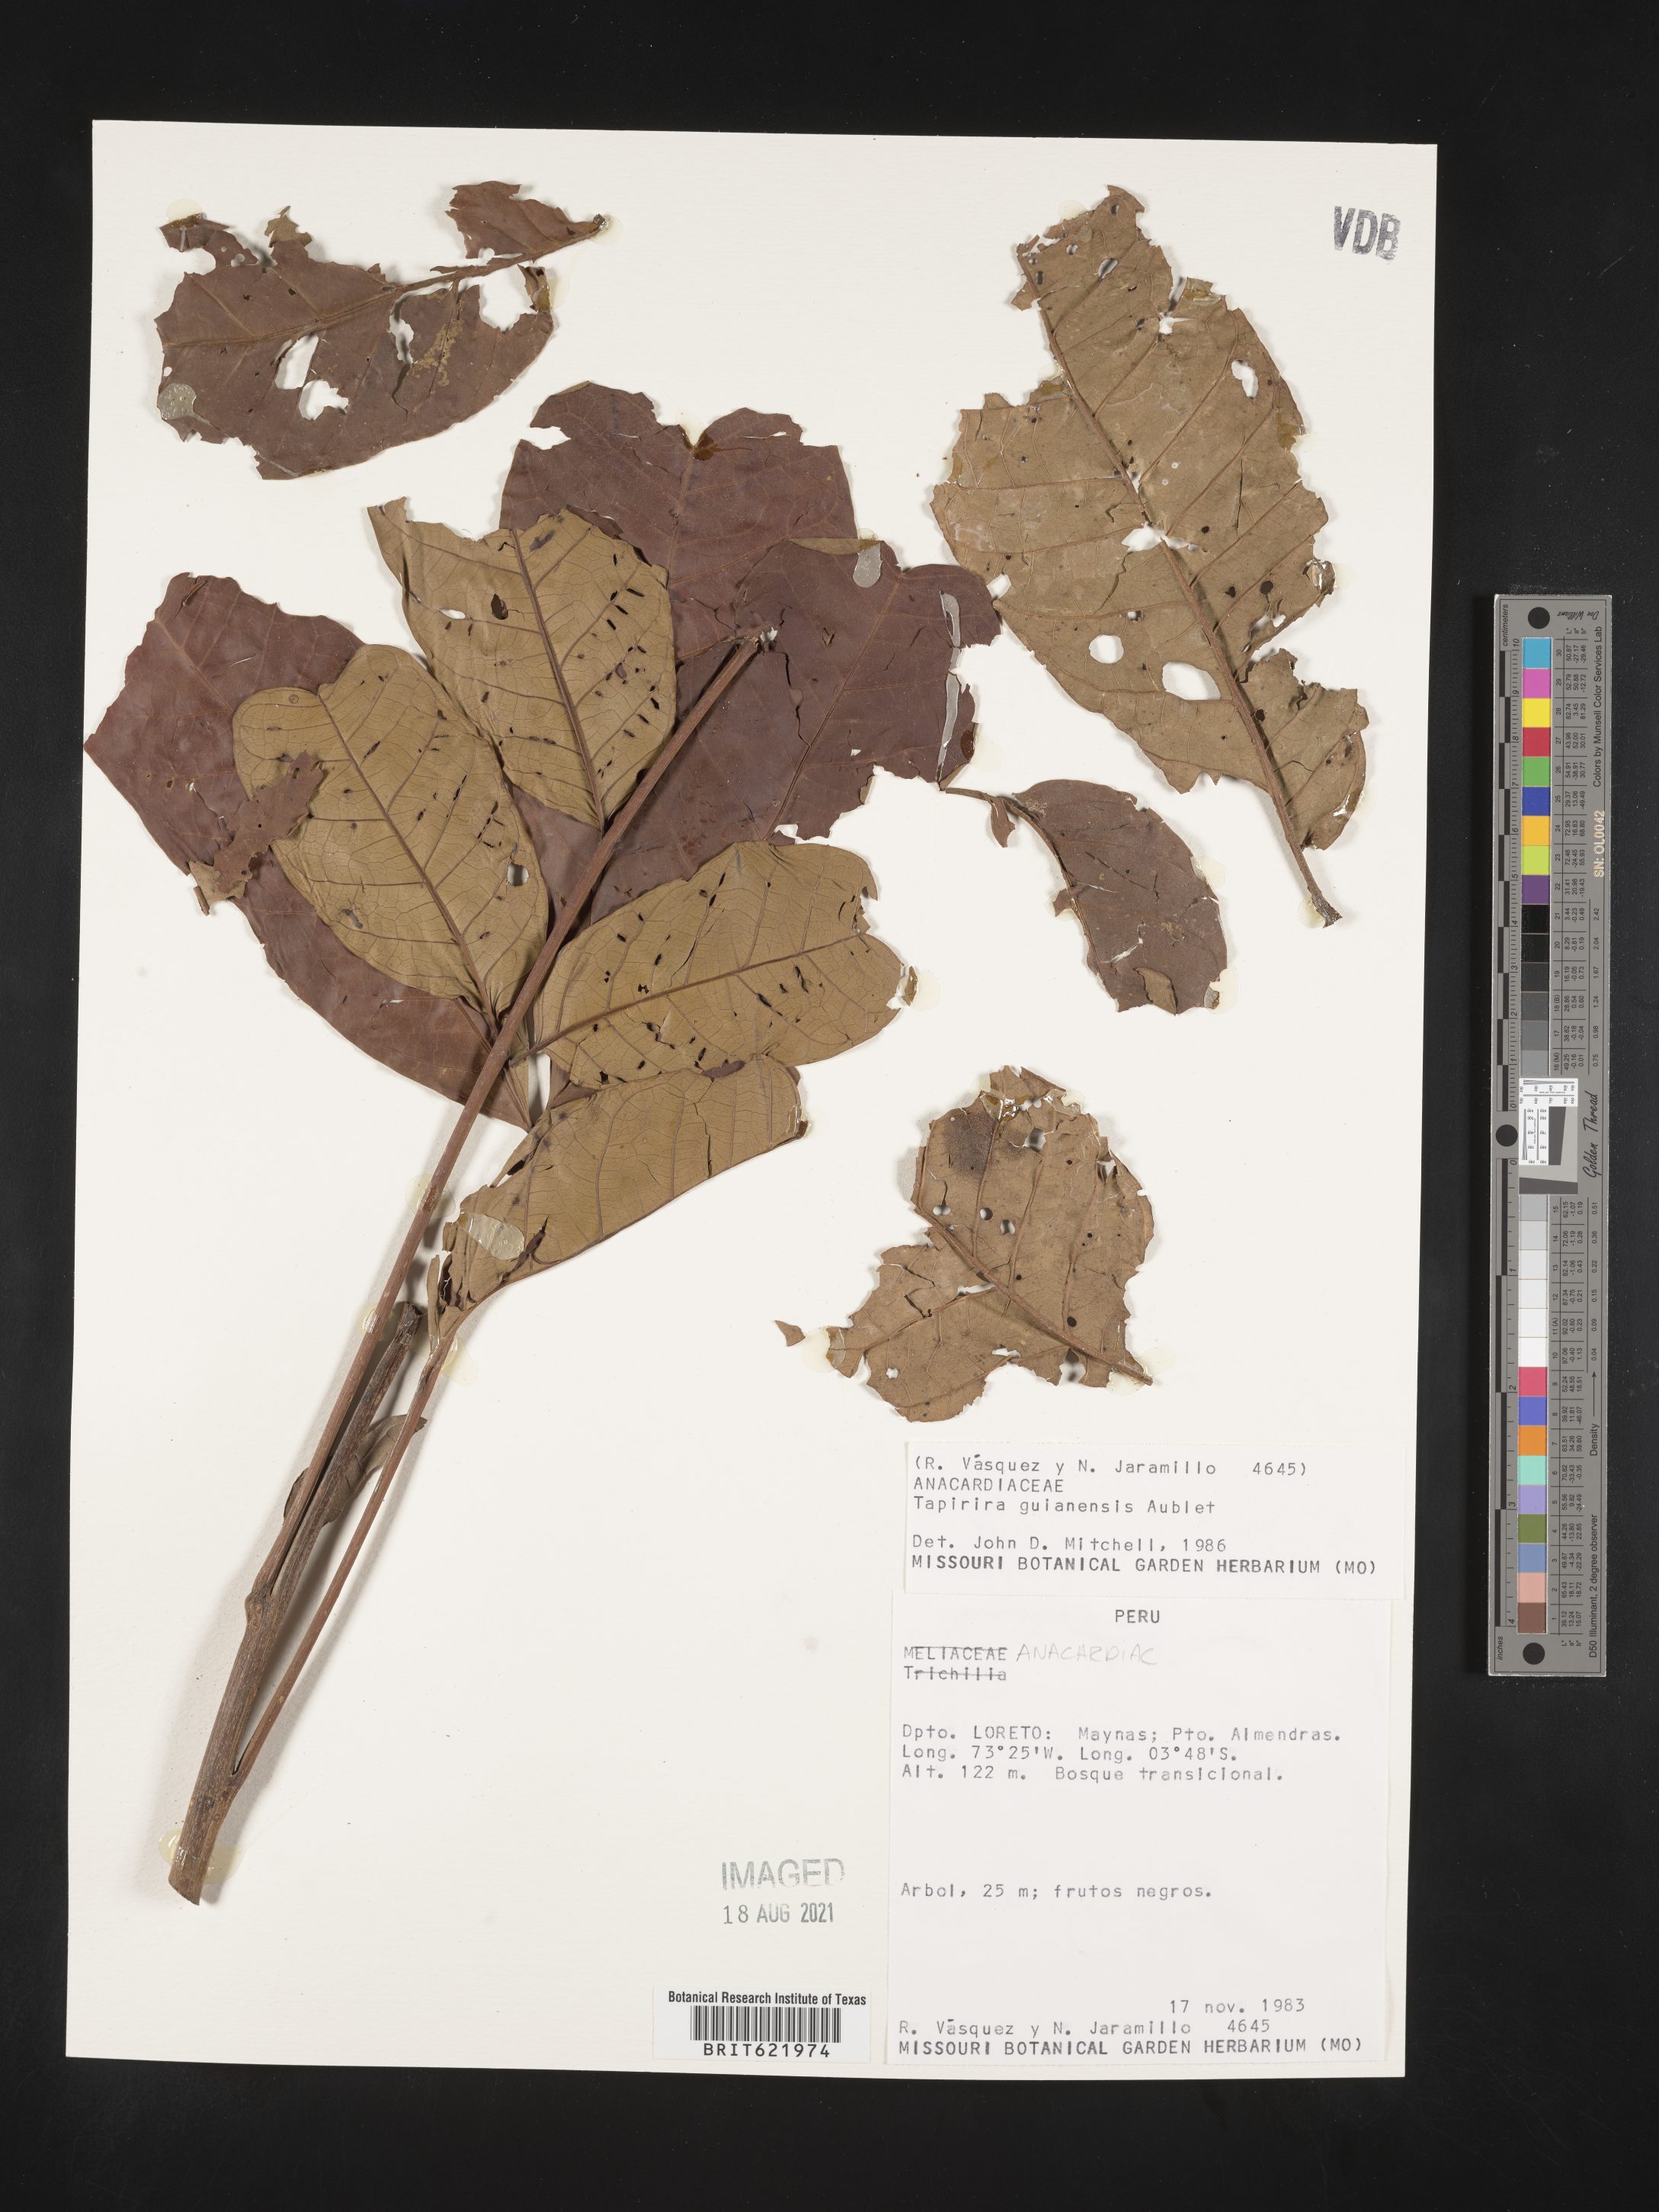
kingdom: Plantae
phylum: Tracheophyta
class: Magnoliopsida
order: Sapindales
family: Anacardiaceae
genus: Tapirira
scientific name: Tapirira guianensis
